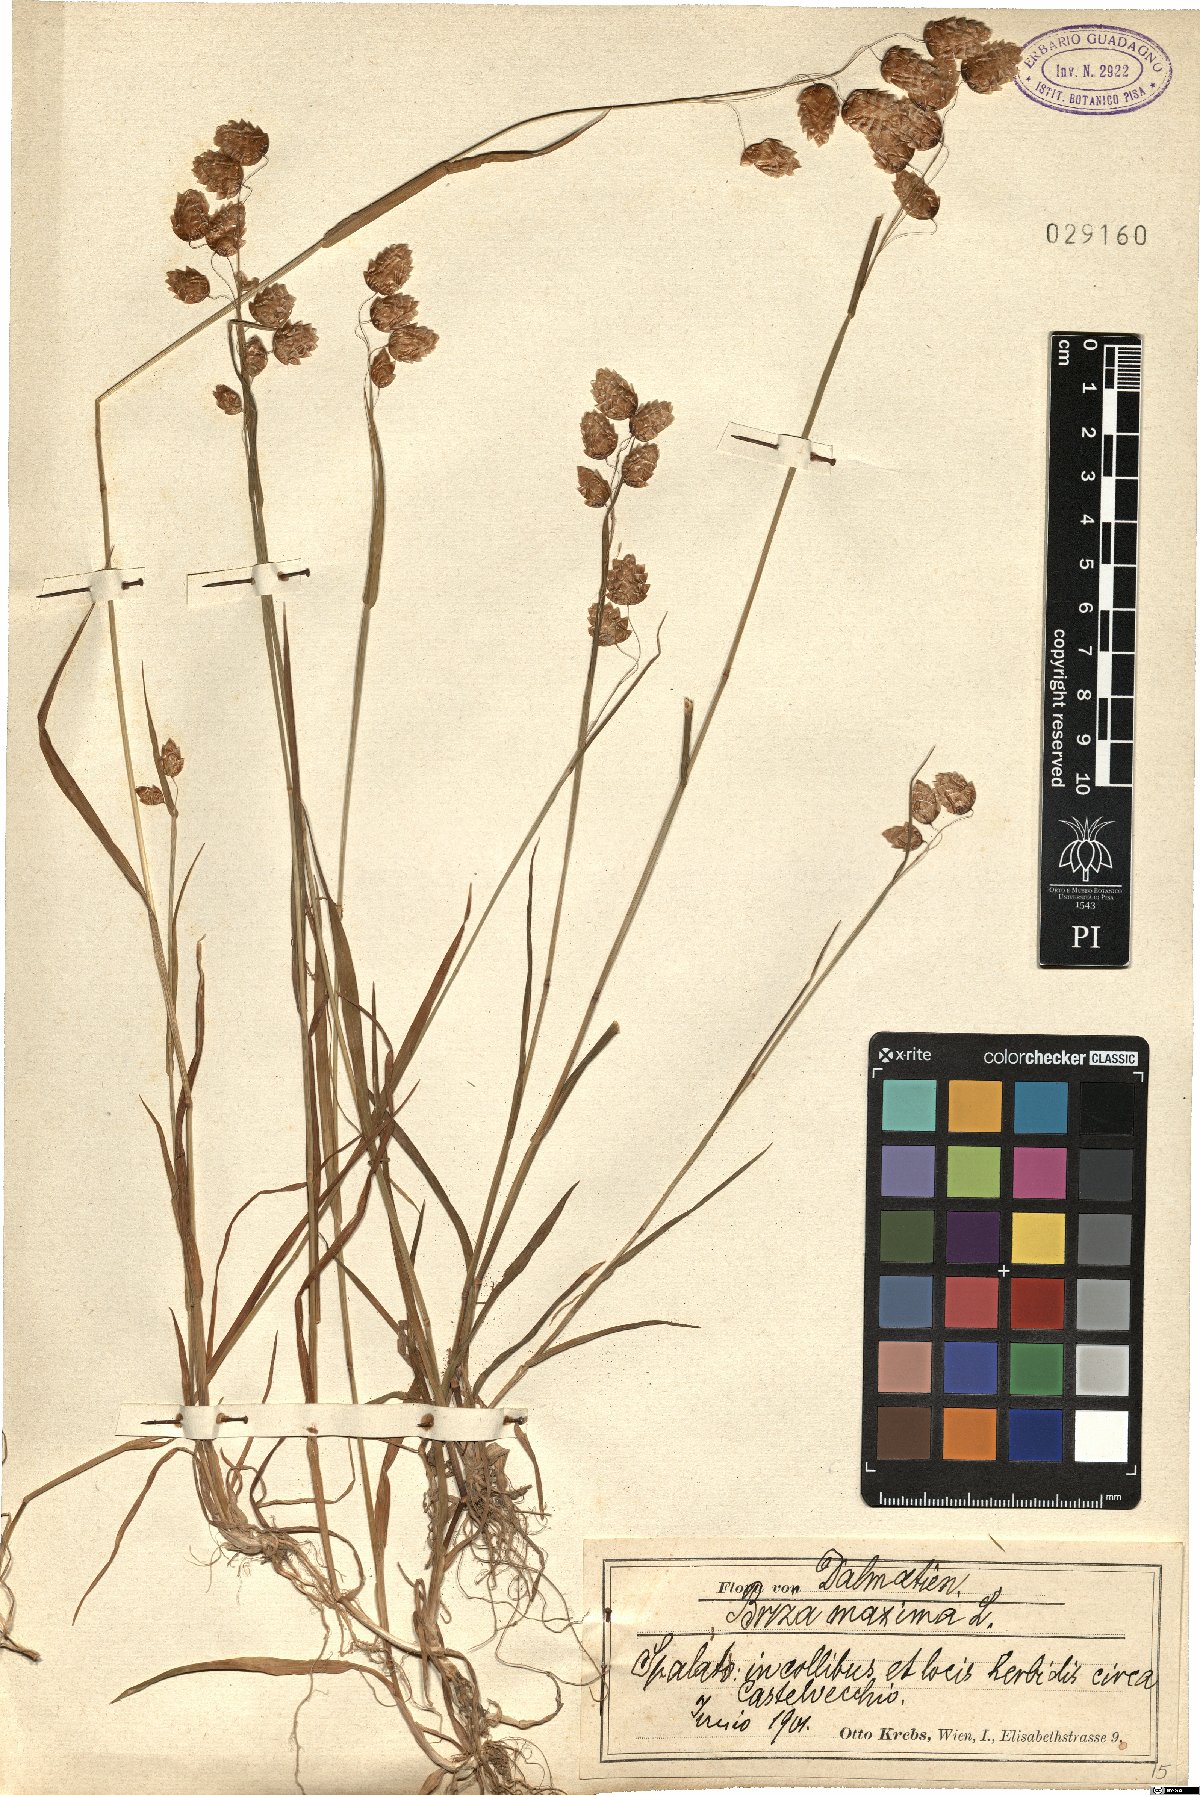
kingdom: Plantae
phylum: Tracheophyta
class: Liliopsida
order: Poales
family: Poaceae
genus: Briza
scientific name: Briza maxima
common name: Big quakinggrass
